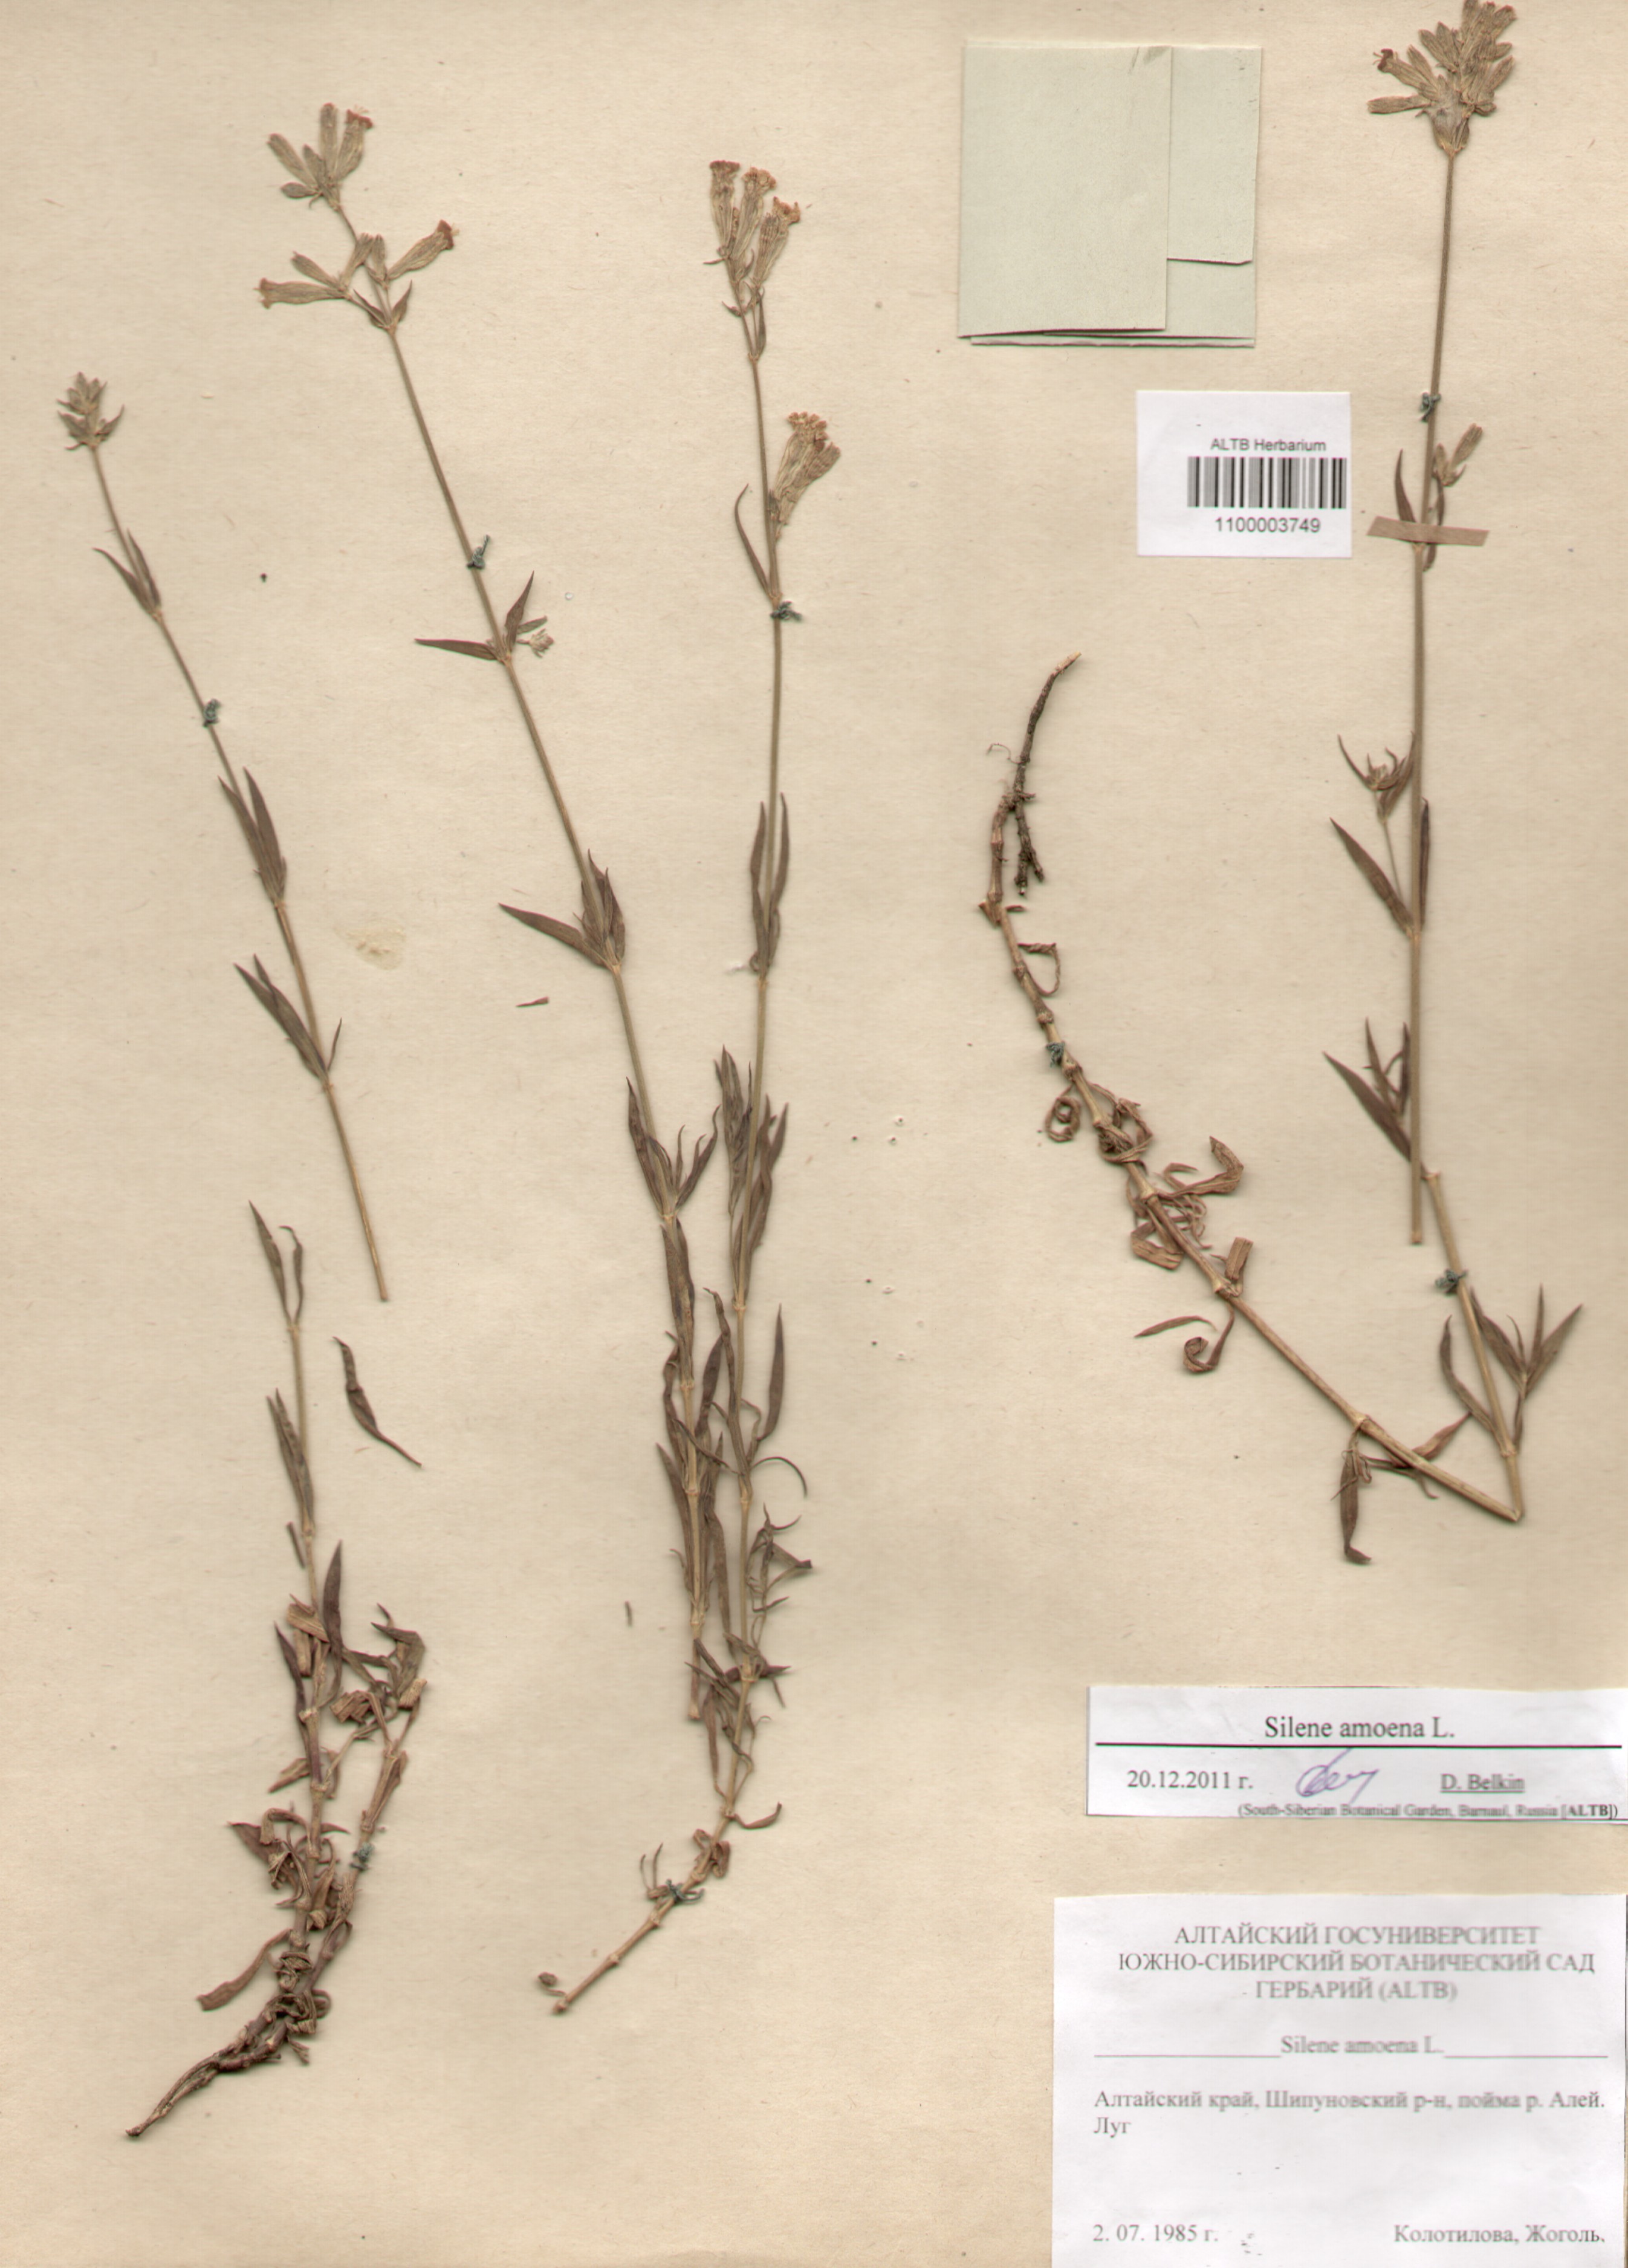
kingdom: Plantae
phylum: Tracheophyta
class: Magnoliopsida
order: Caryophyllales
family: Caryophyllaceae
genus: Silene
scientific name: Silene amoena
